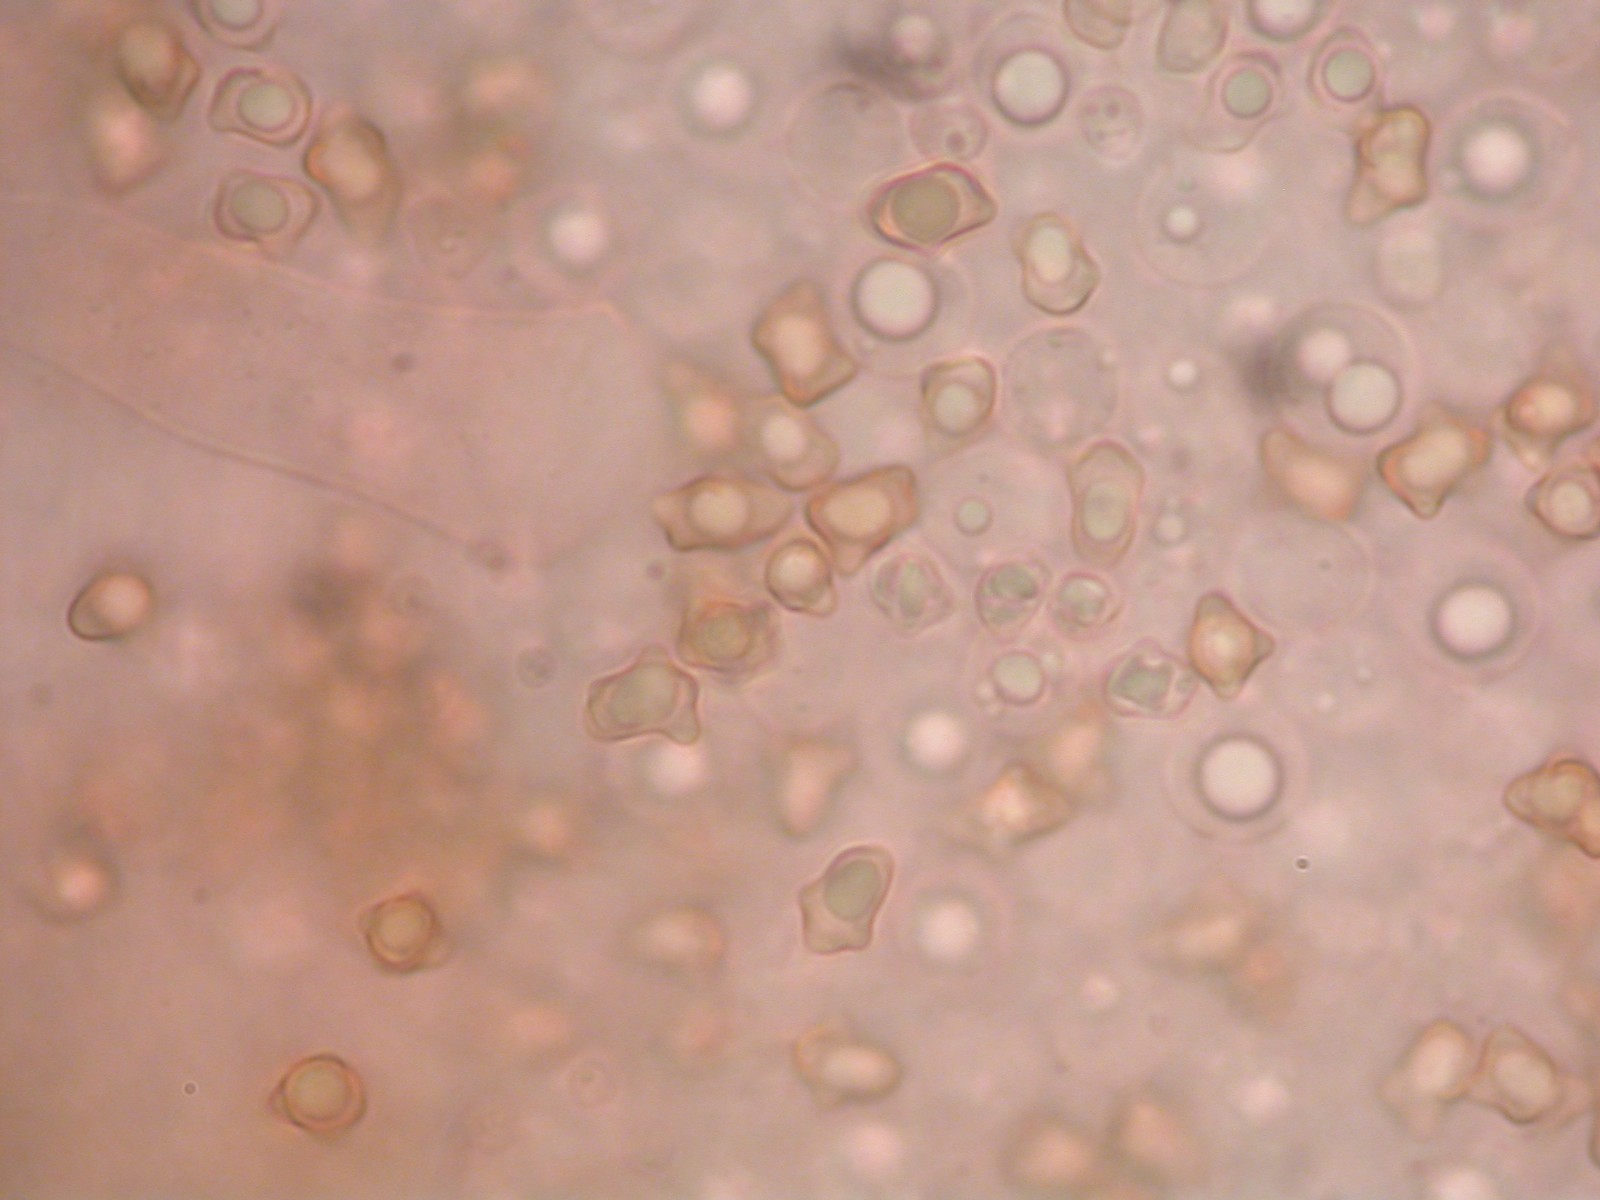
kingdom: Fungi
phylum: Basidiomycota
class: Agaricomycetes
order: Agaricales
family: Inocybaceae
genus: Inocybe
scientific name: Inocybe
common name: trævlhat
